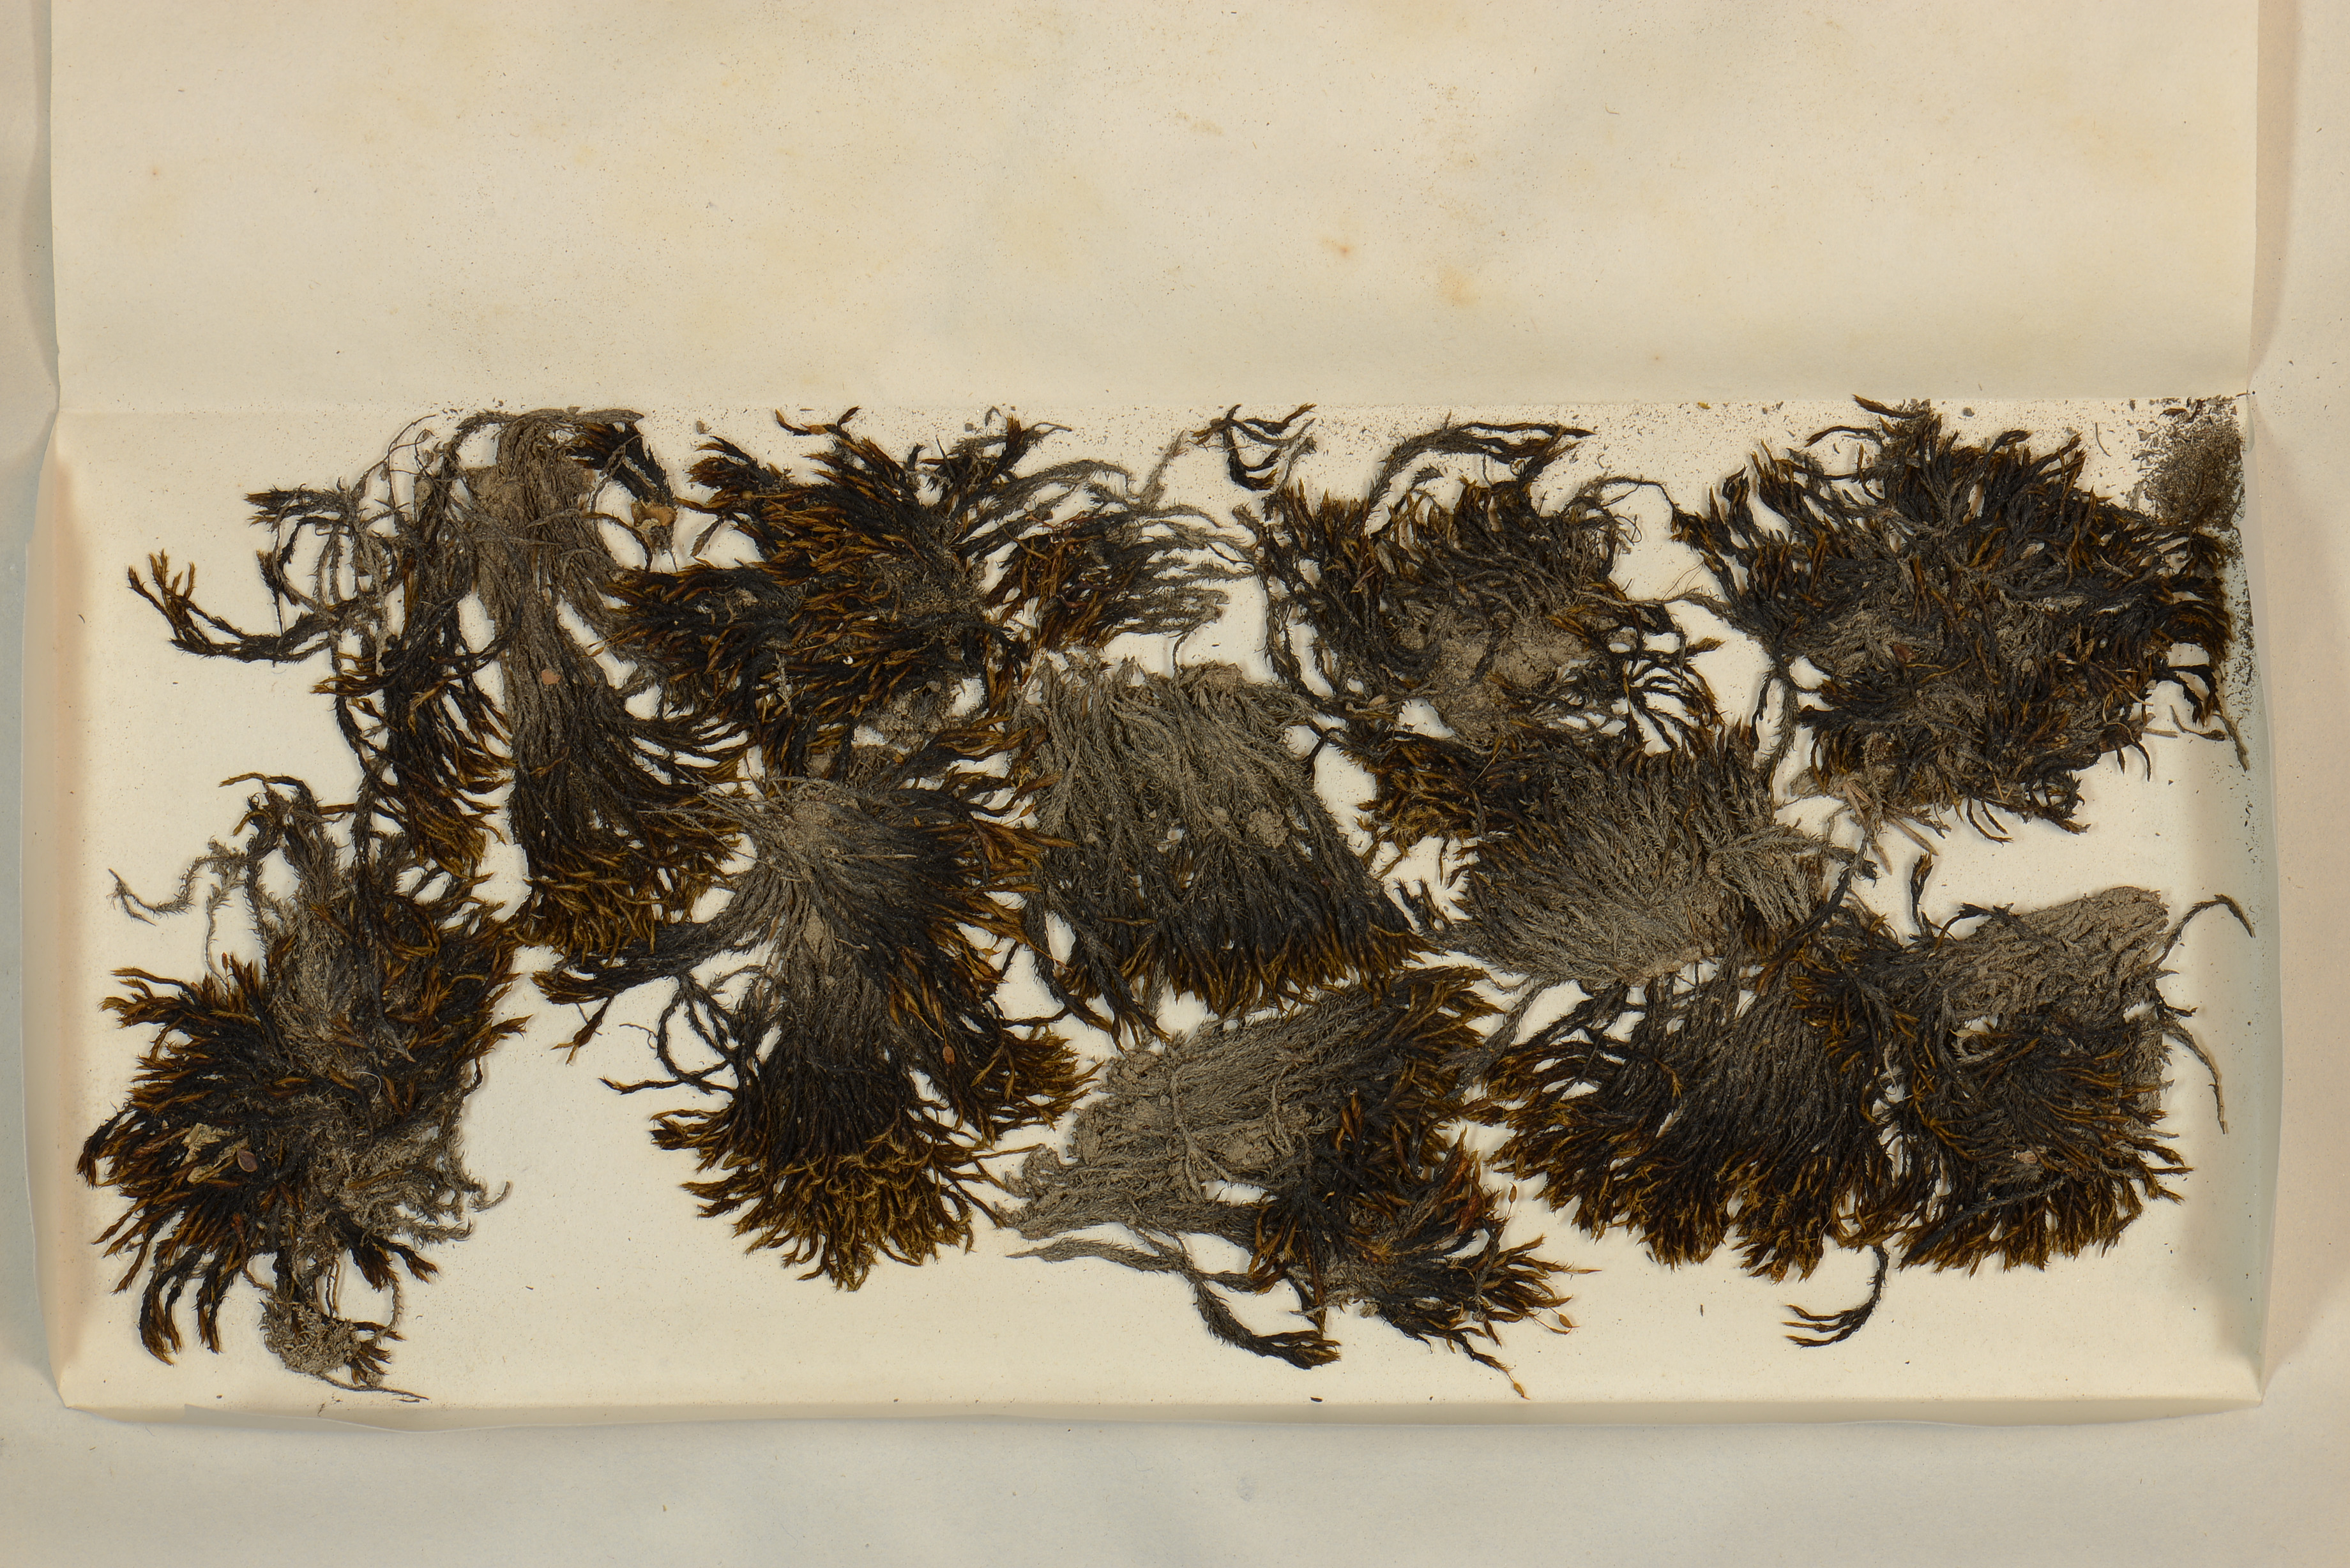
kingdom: Plantae
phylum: Bryophyta
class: Bryopsida
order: Grimmiales
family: Grimmiaceae
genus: Grimmia
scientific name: Grimmia ovalis
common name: Oval grimmia
